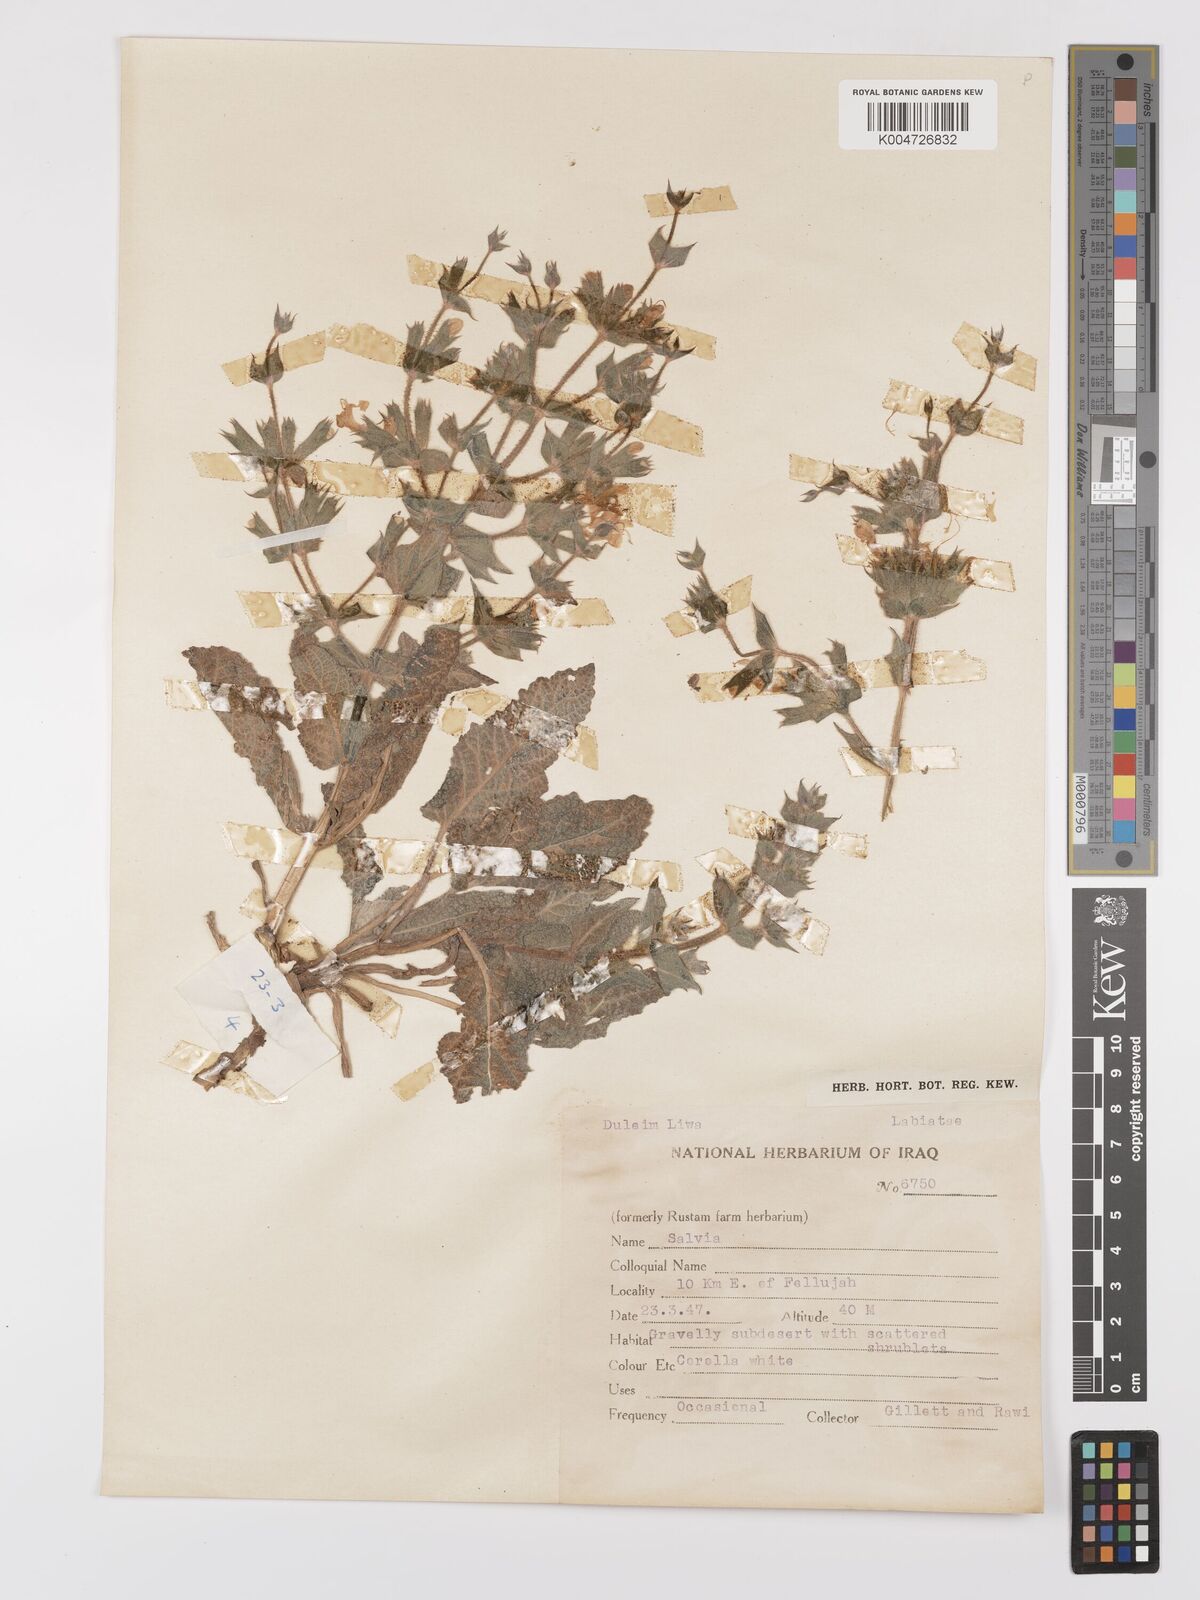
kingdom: Plantae
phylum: Tracheophyta
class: Magnoliopsida
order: Lamiales
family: Lamiaceae
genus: Salvia
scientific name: Salvia
